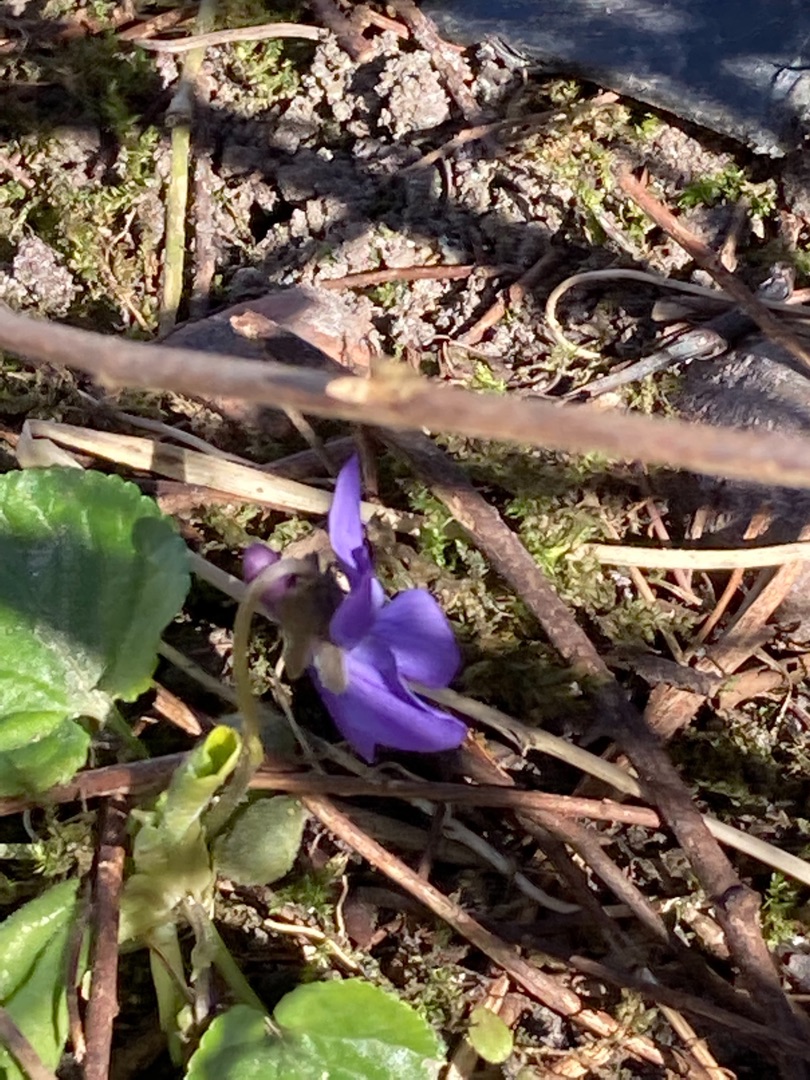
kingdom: Plantae
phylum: Tracheophyta
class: Magnoliopsida
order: Malpighiales
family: Violaceae
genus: Viola
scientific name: Viola odorata
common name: Marts-viol
